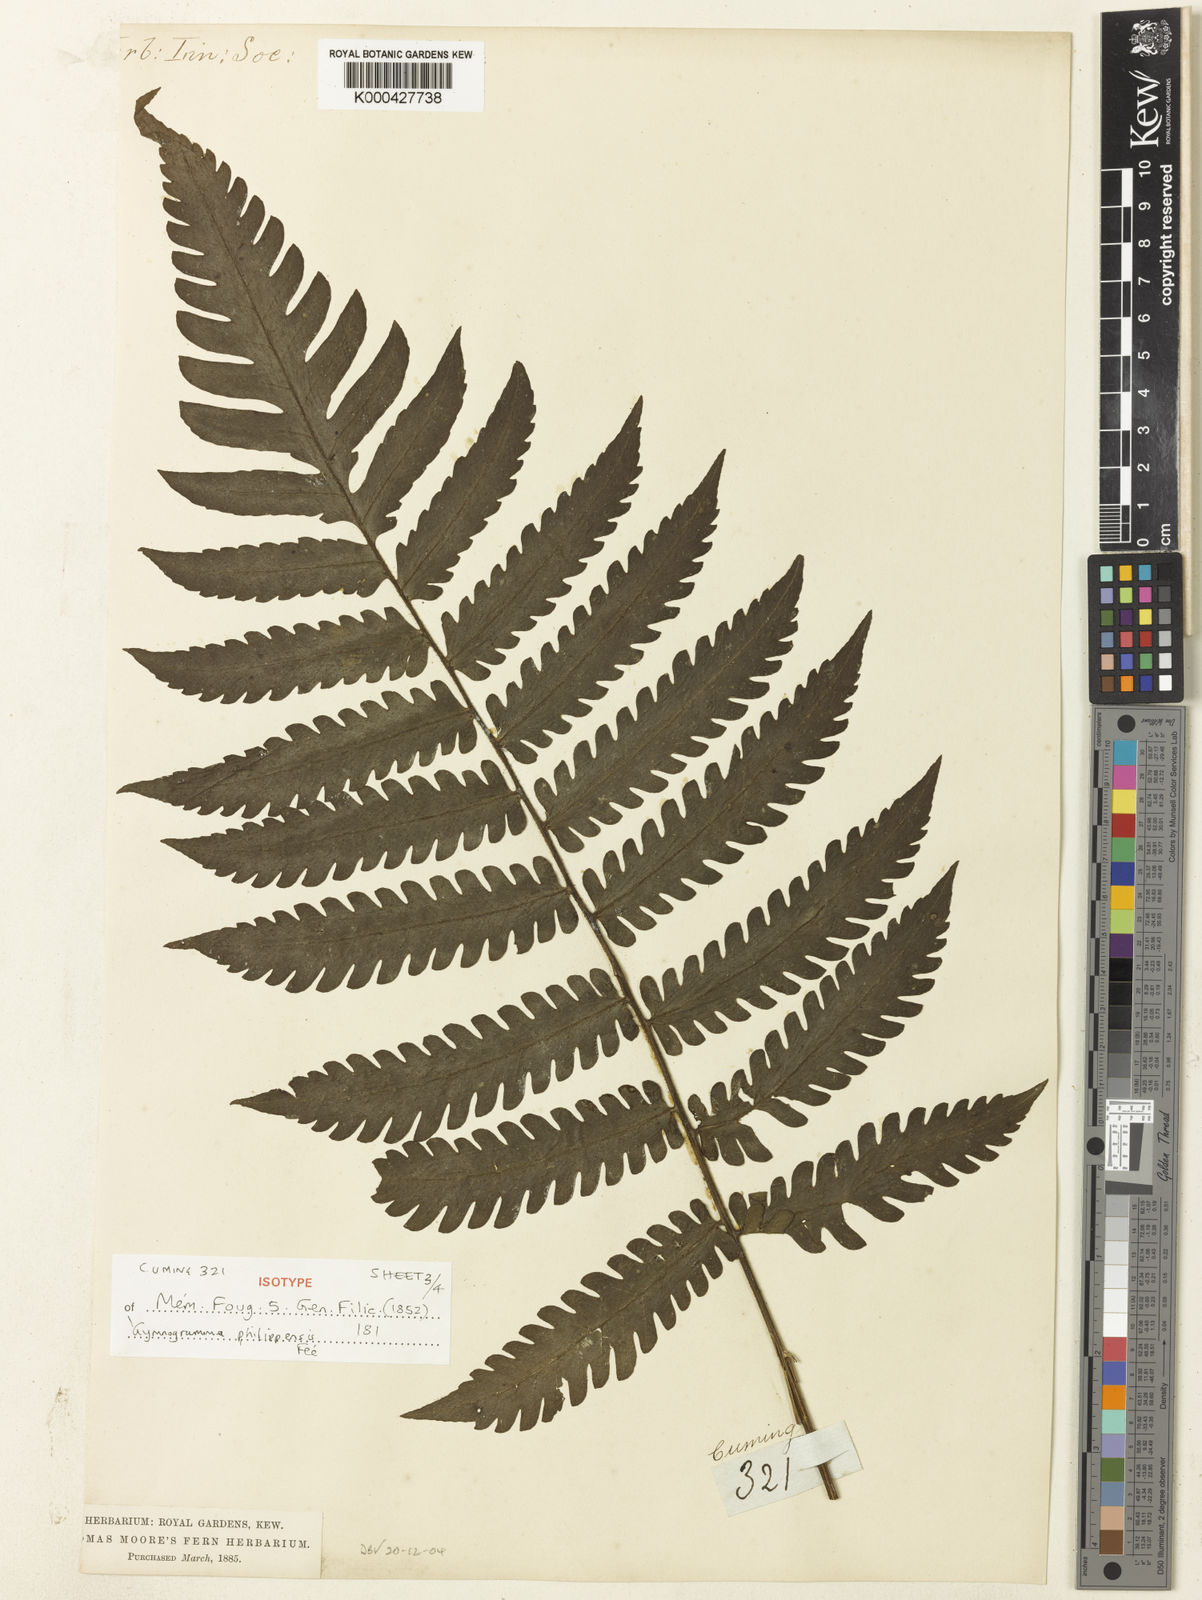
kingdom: Plantae
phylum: Tracheophyta
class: Polypodiopsida
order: Polypodiales
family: Tectariaceae
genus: Tectaria
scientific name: Tectaria aspidioides
